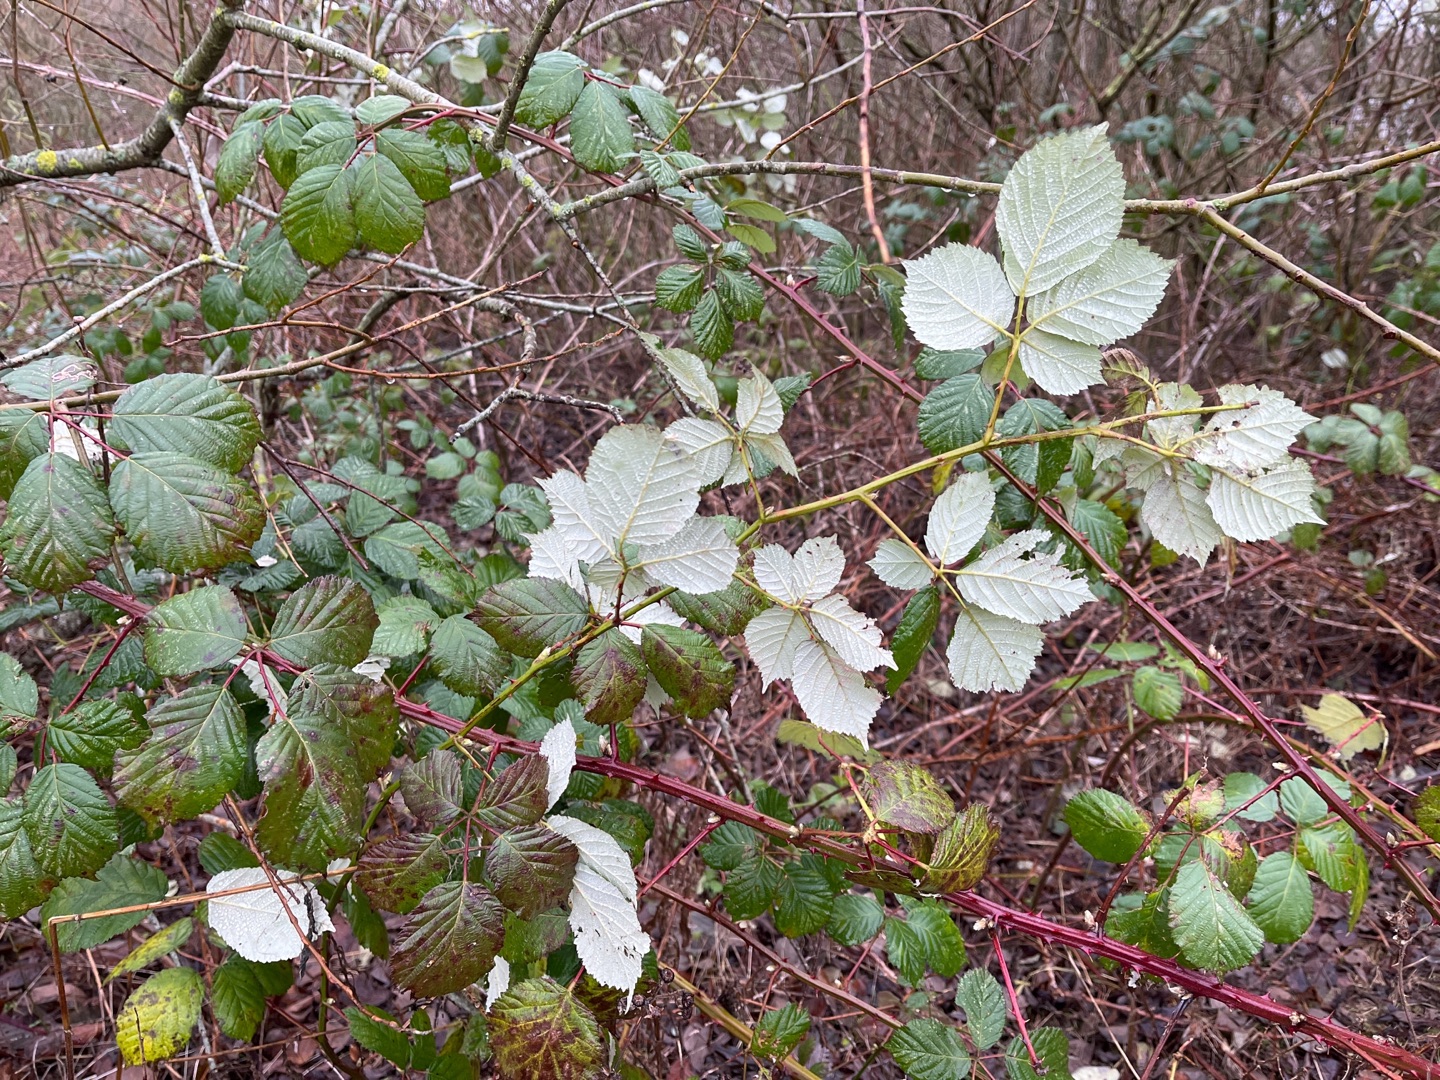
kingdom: Plantae
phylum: Tracheophyta
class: Magnoliopsida
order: Rosales
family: Rosaceae
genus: Rubus
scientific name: Rubus armeniacus
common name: Armensk brombær
